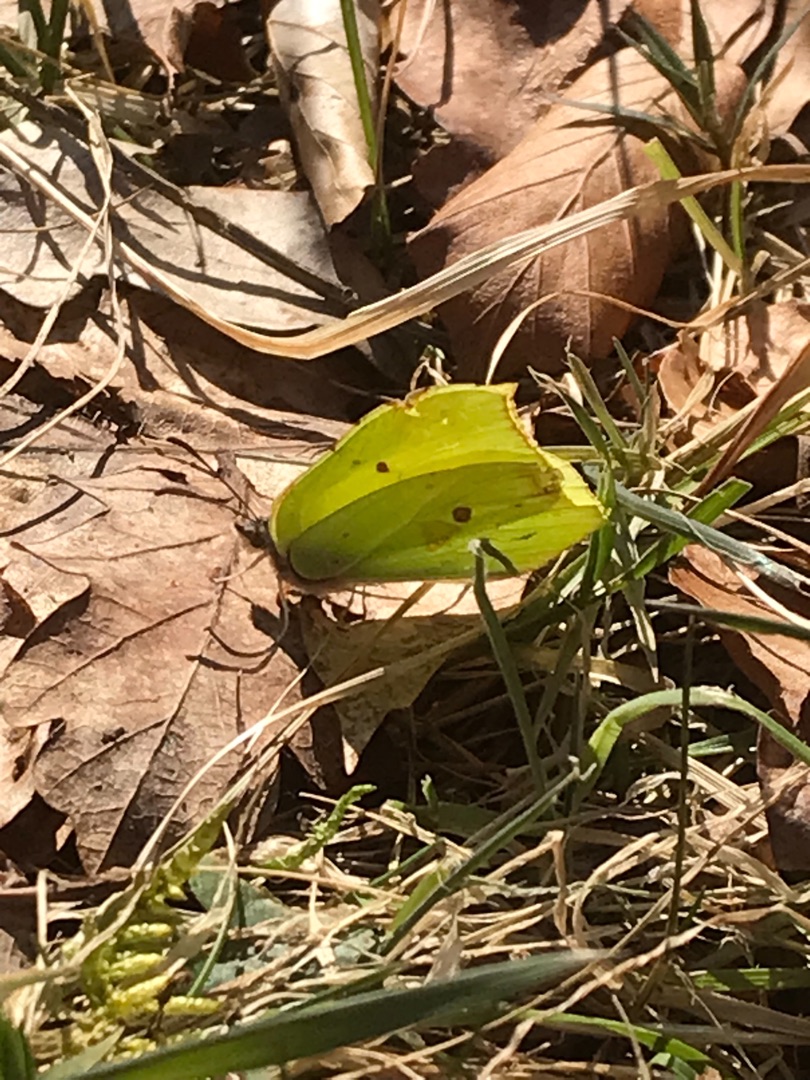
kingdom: Animalia
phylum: Arthropoda
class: Insecta
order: Lepidoptera
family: Pieridae
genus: Gonepteryx
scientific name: Gonepteryx rhamni
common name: Citronsommerfugl
